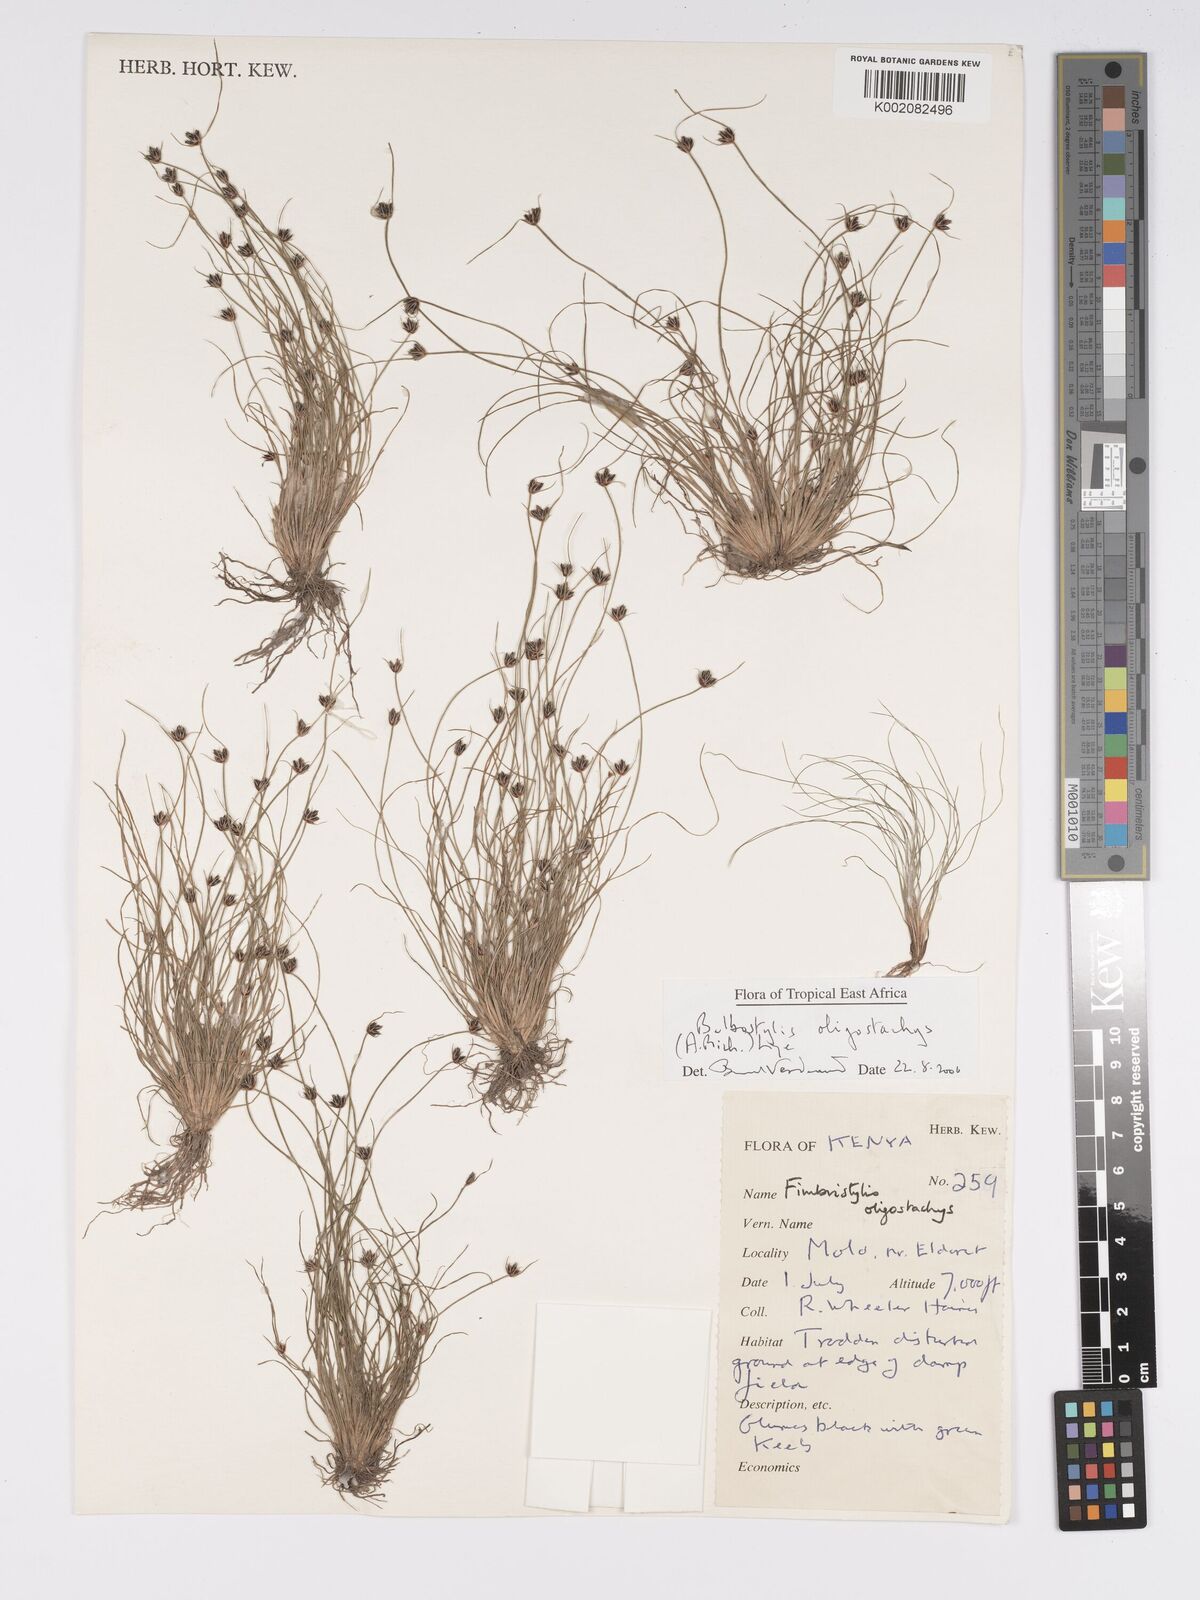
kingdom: Plantae
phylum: Tracheophyta
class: Liliopsida
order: Poales
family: Cyperaceae
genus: Bulbostylis
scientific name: Bulbostylis oligostachys
